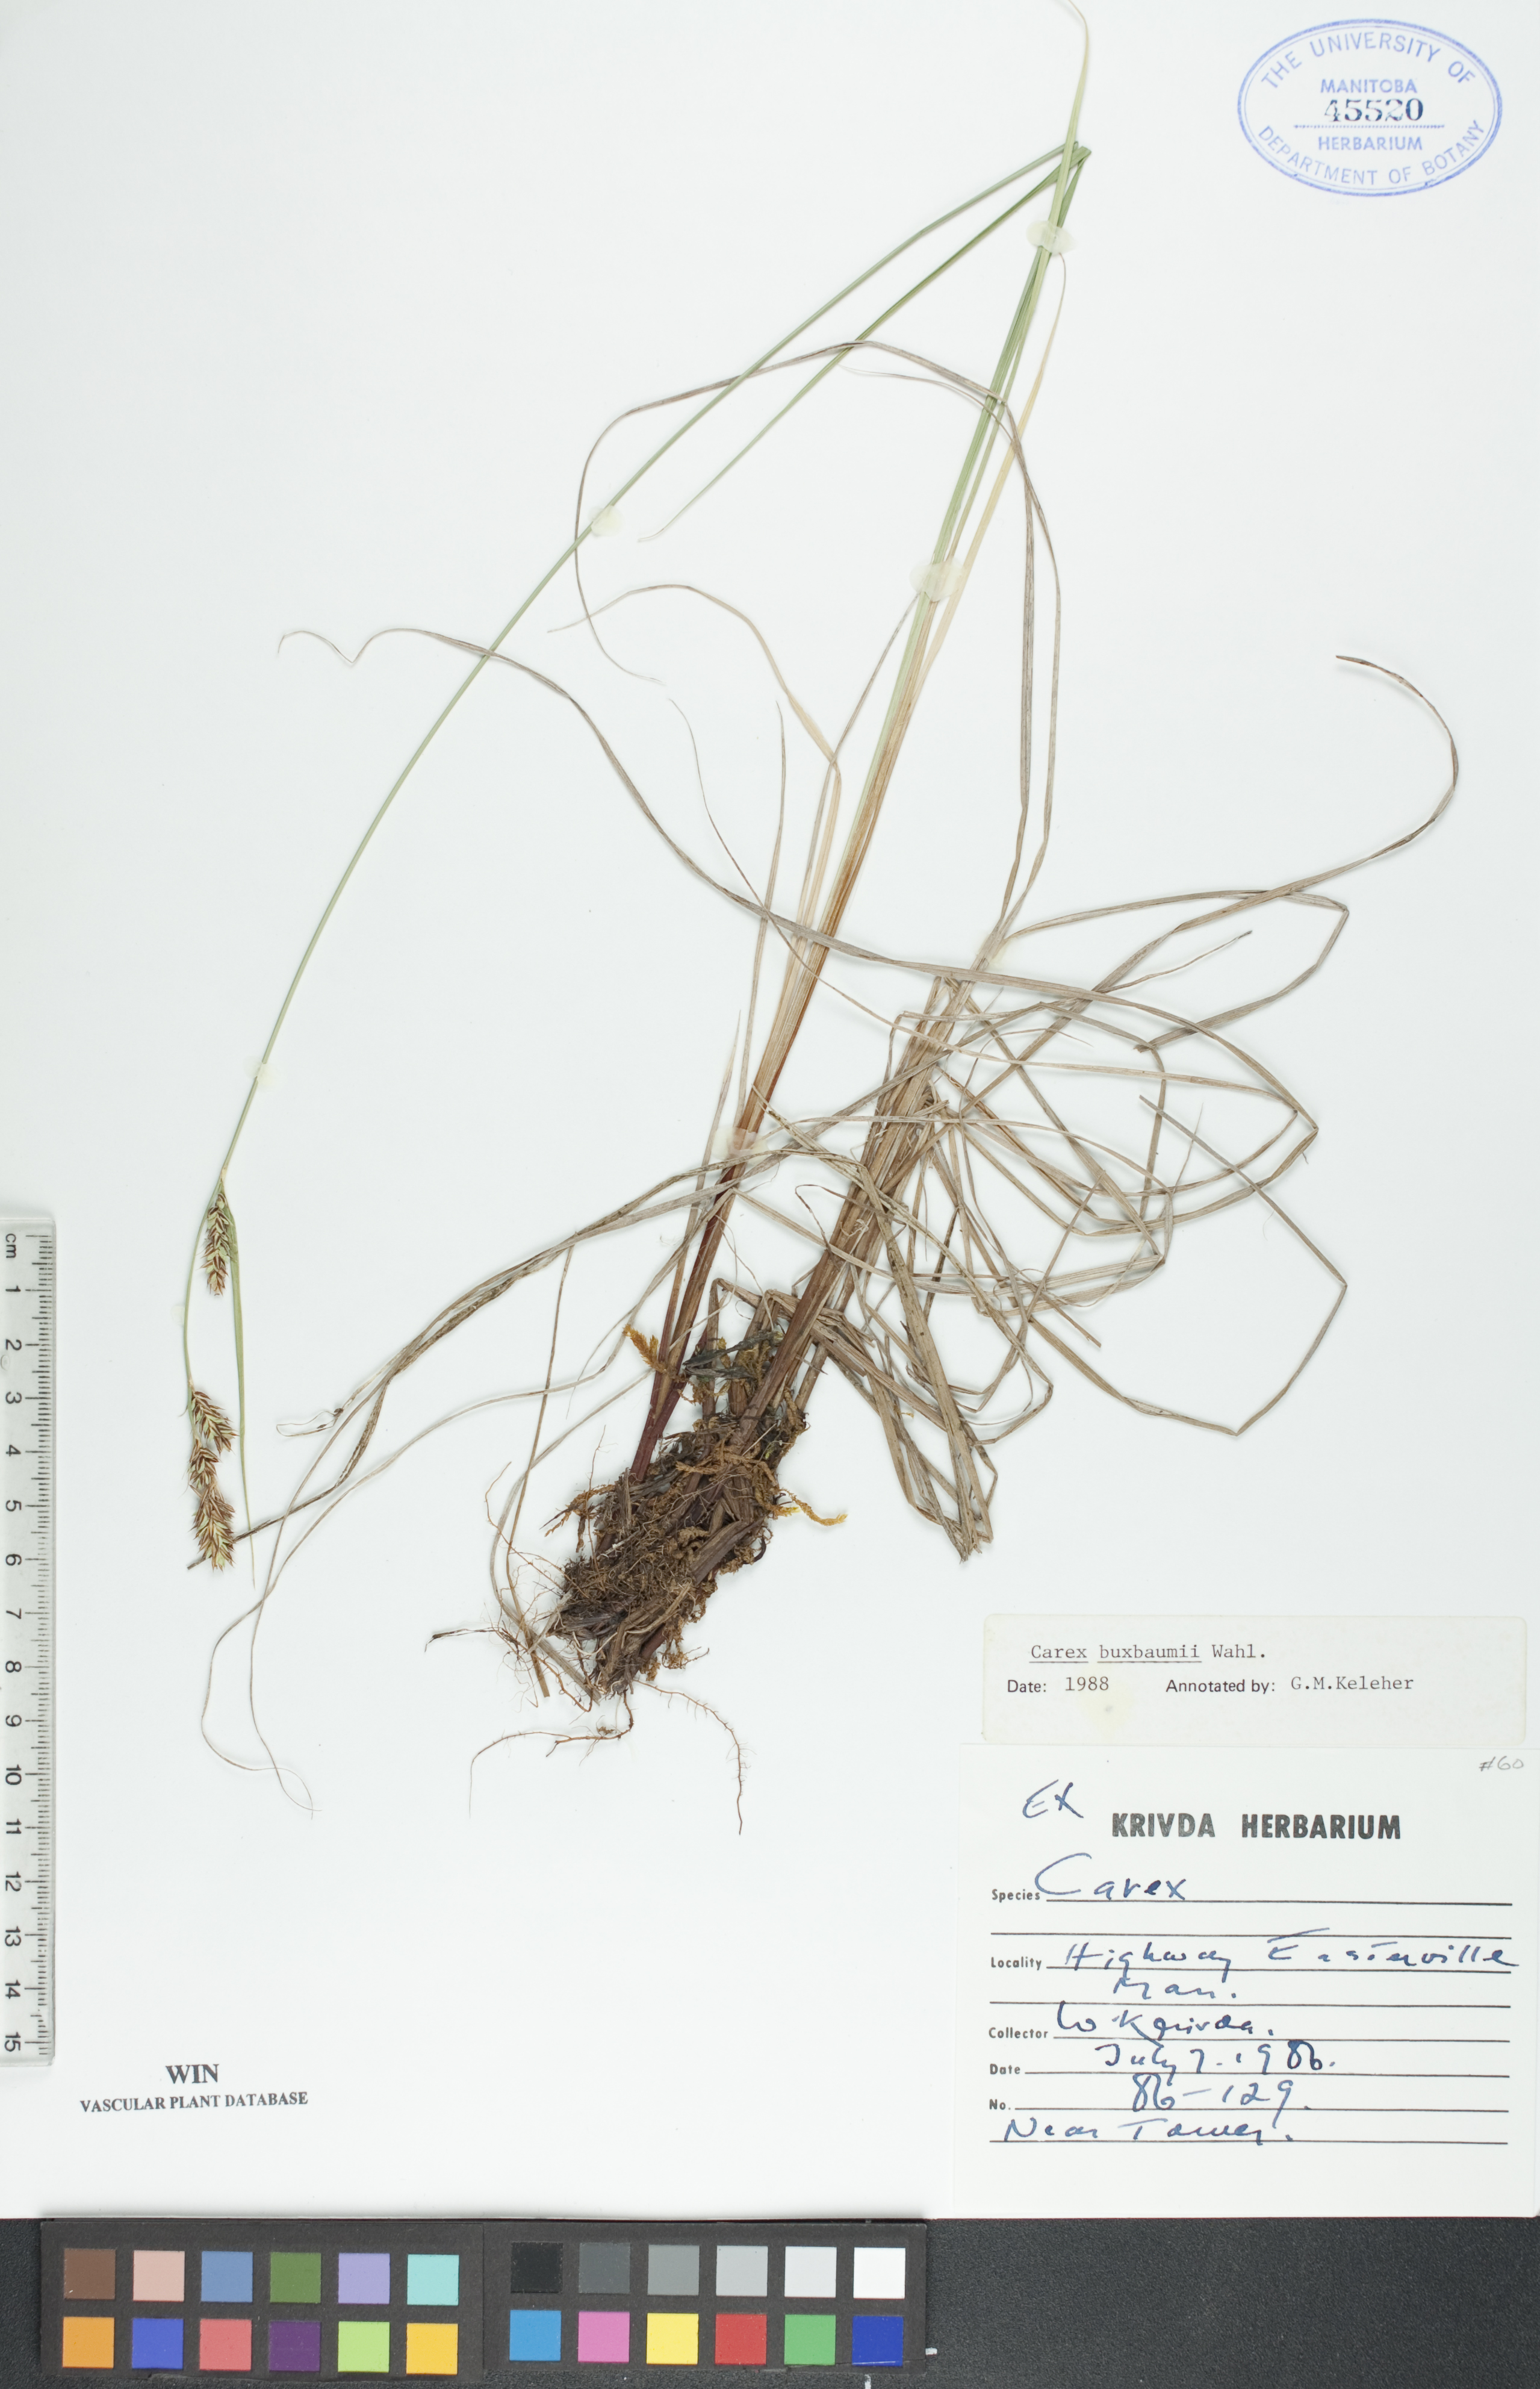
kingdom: Plantae
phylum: Tracheophyta
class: Liliopsida
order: Poales
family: Cyperaceae
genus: Carex
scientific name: Carex buxbaumii
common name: Club sedge
